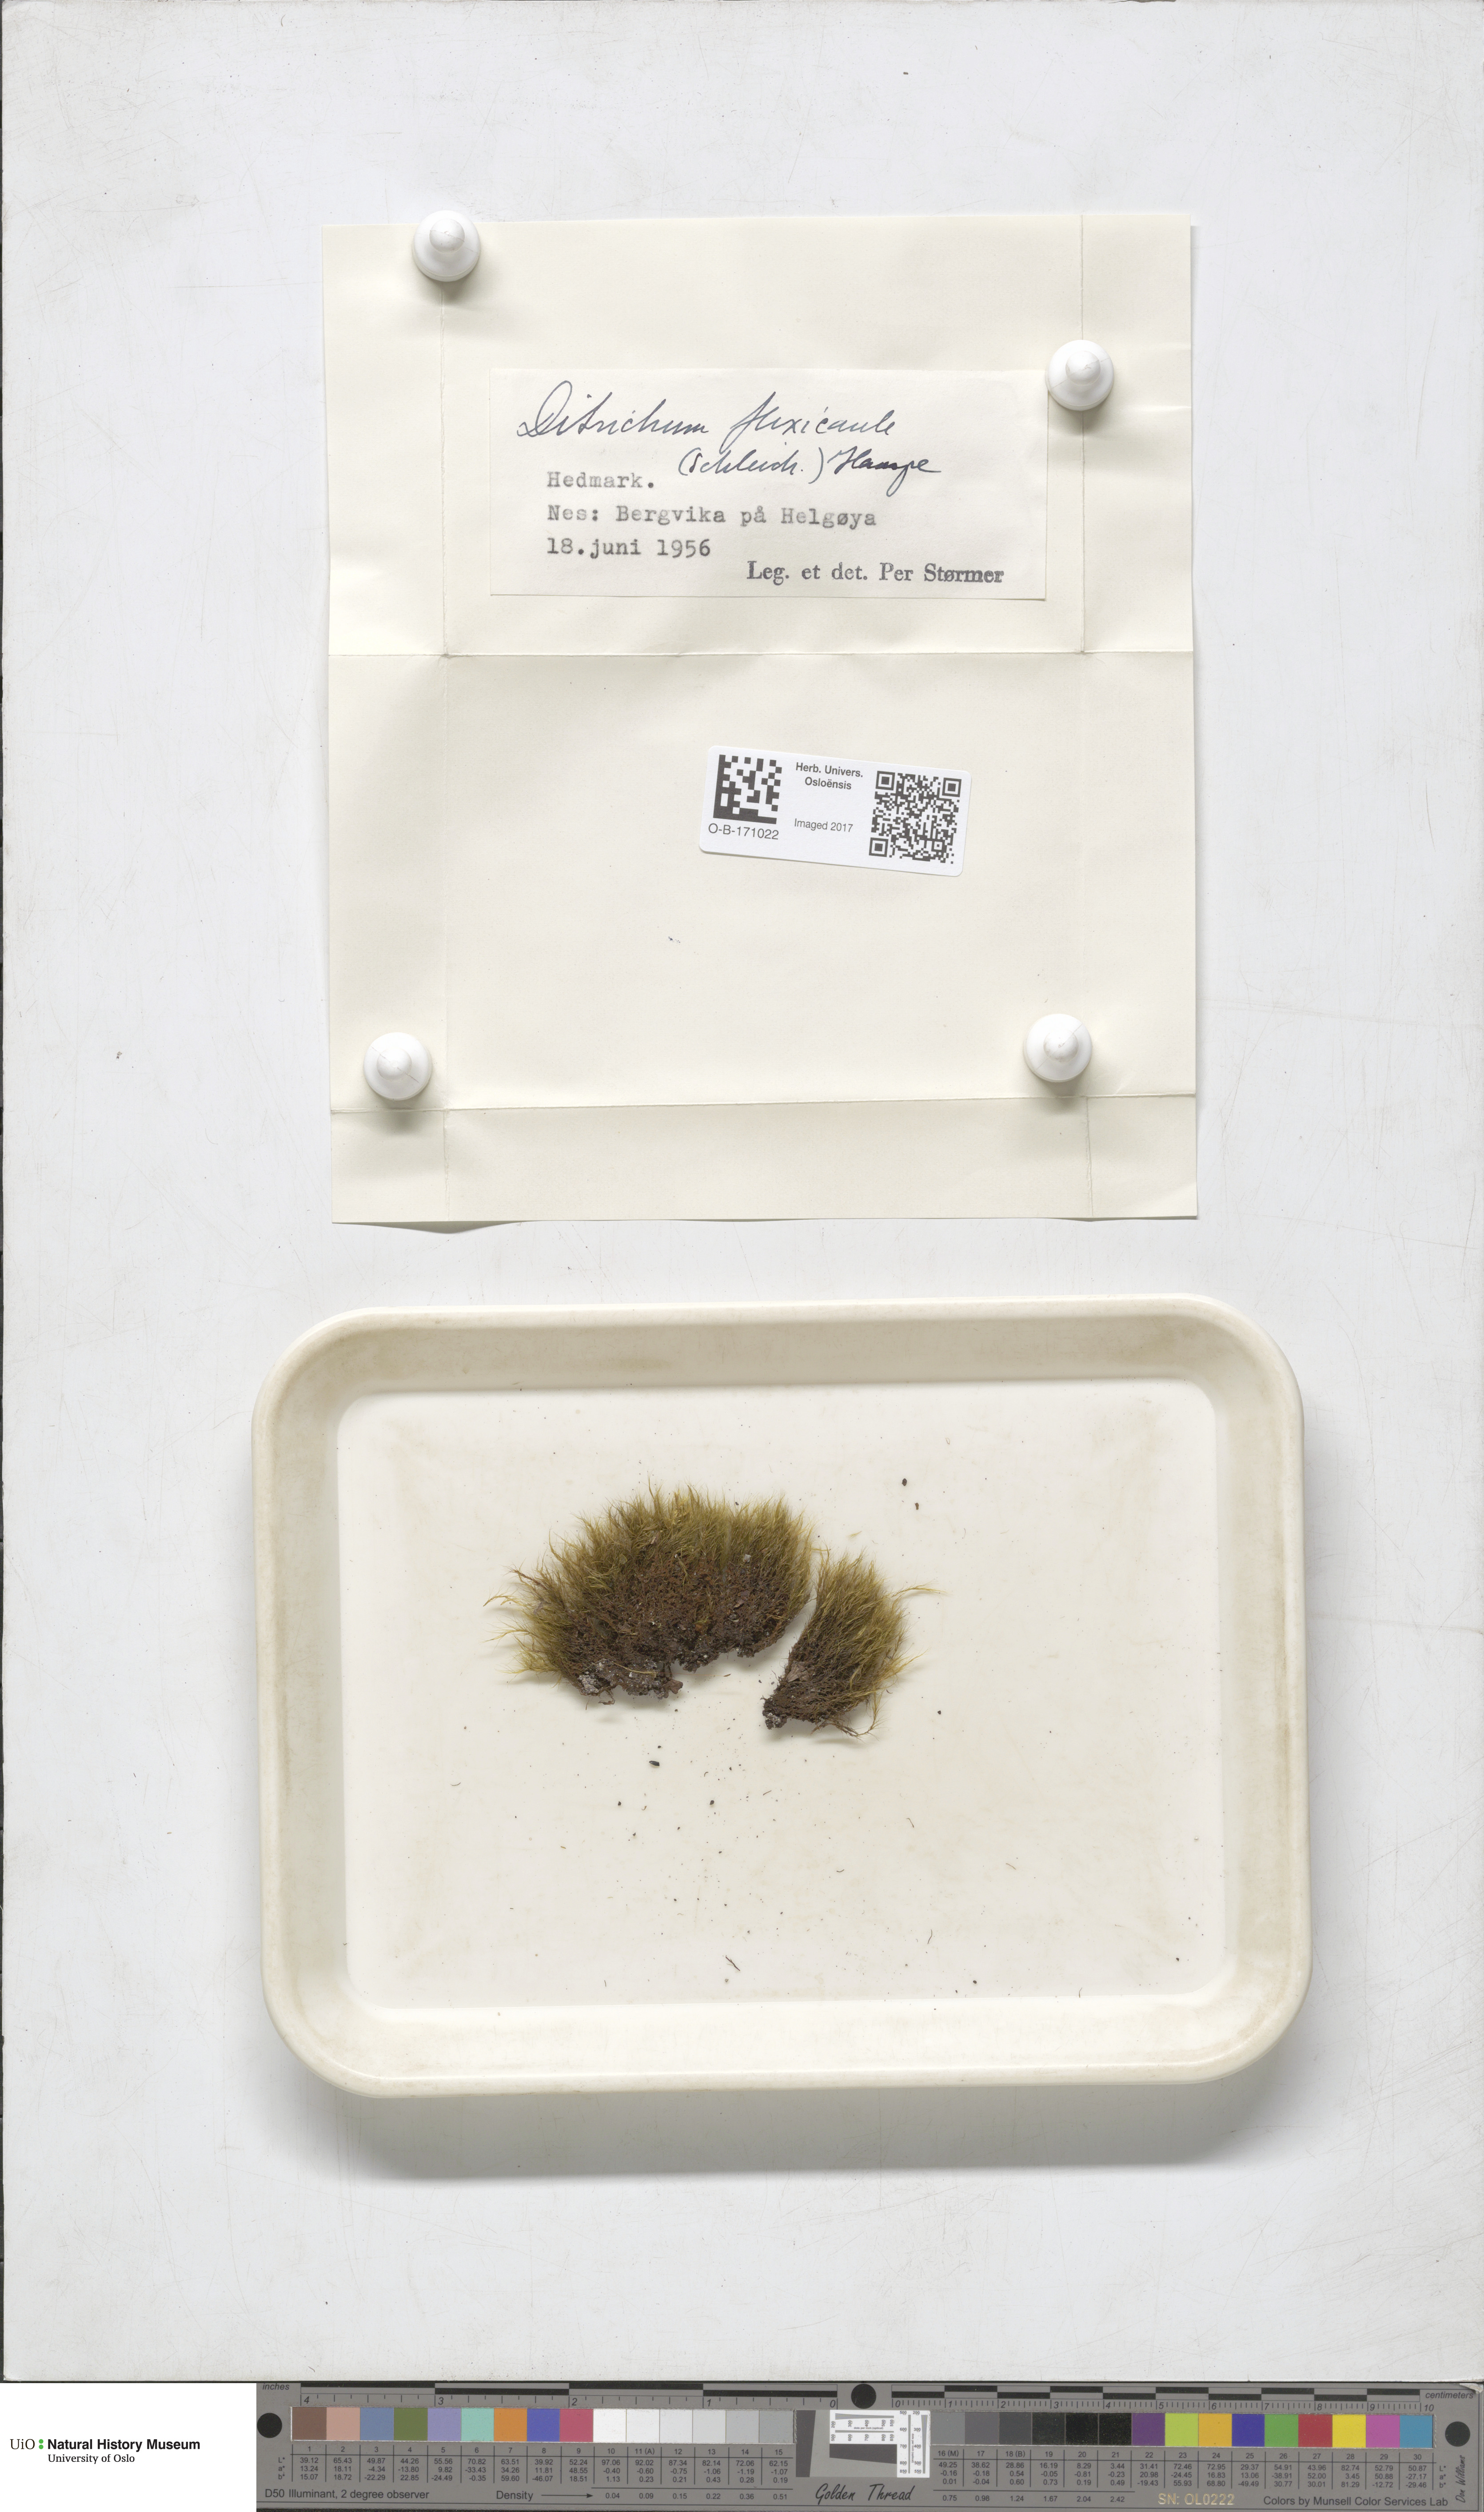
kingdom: Plantae
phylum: Bryophyta
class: Bryopsida
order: Scouleriales
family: Flexitrichaceae
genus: Flexitrichum
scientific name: Flexitrichum flexicaule
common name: Bendy ditrichum
